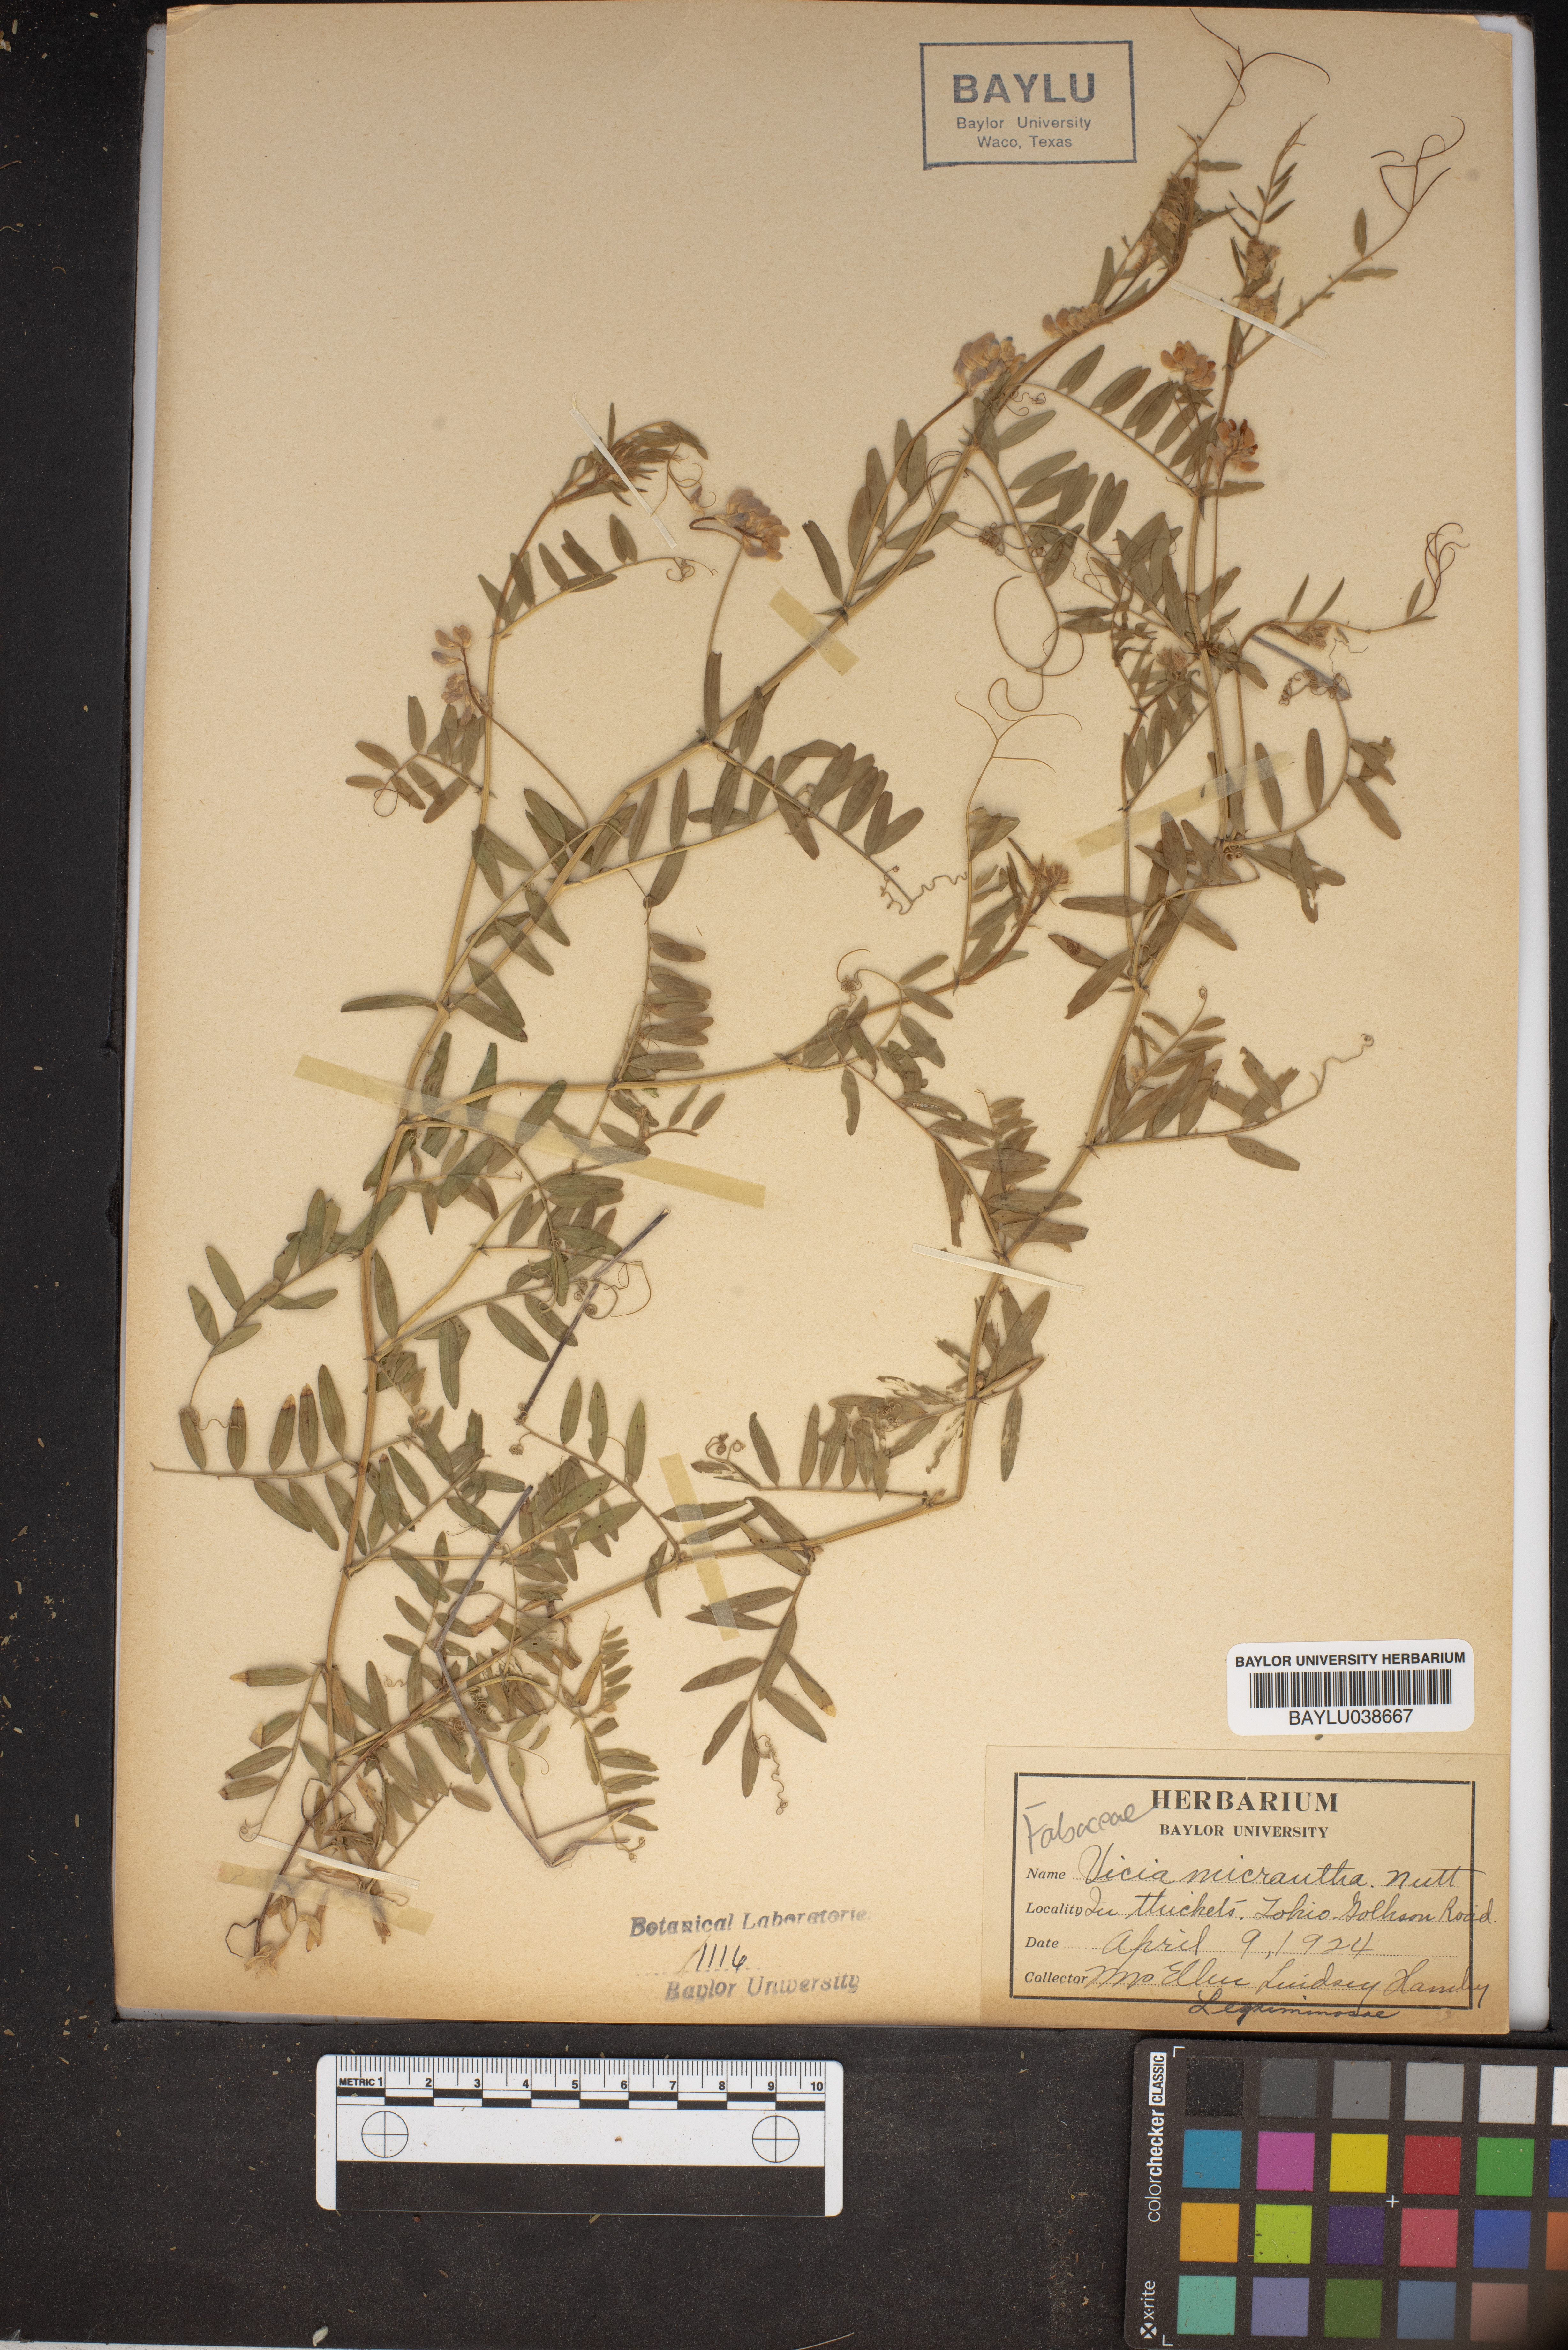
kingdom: Plantae
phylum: Tracheophyta
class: Magnoliopsida
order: Fabales
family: Fabaceae
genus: Vicia
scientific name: Vicia minutiflora
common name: Pygmy-flower vetch
